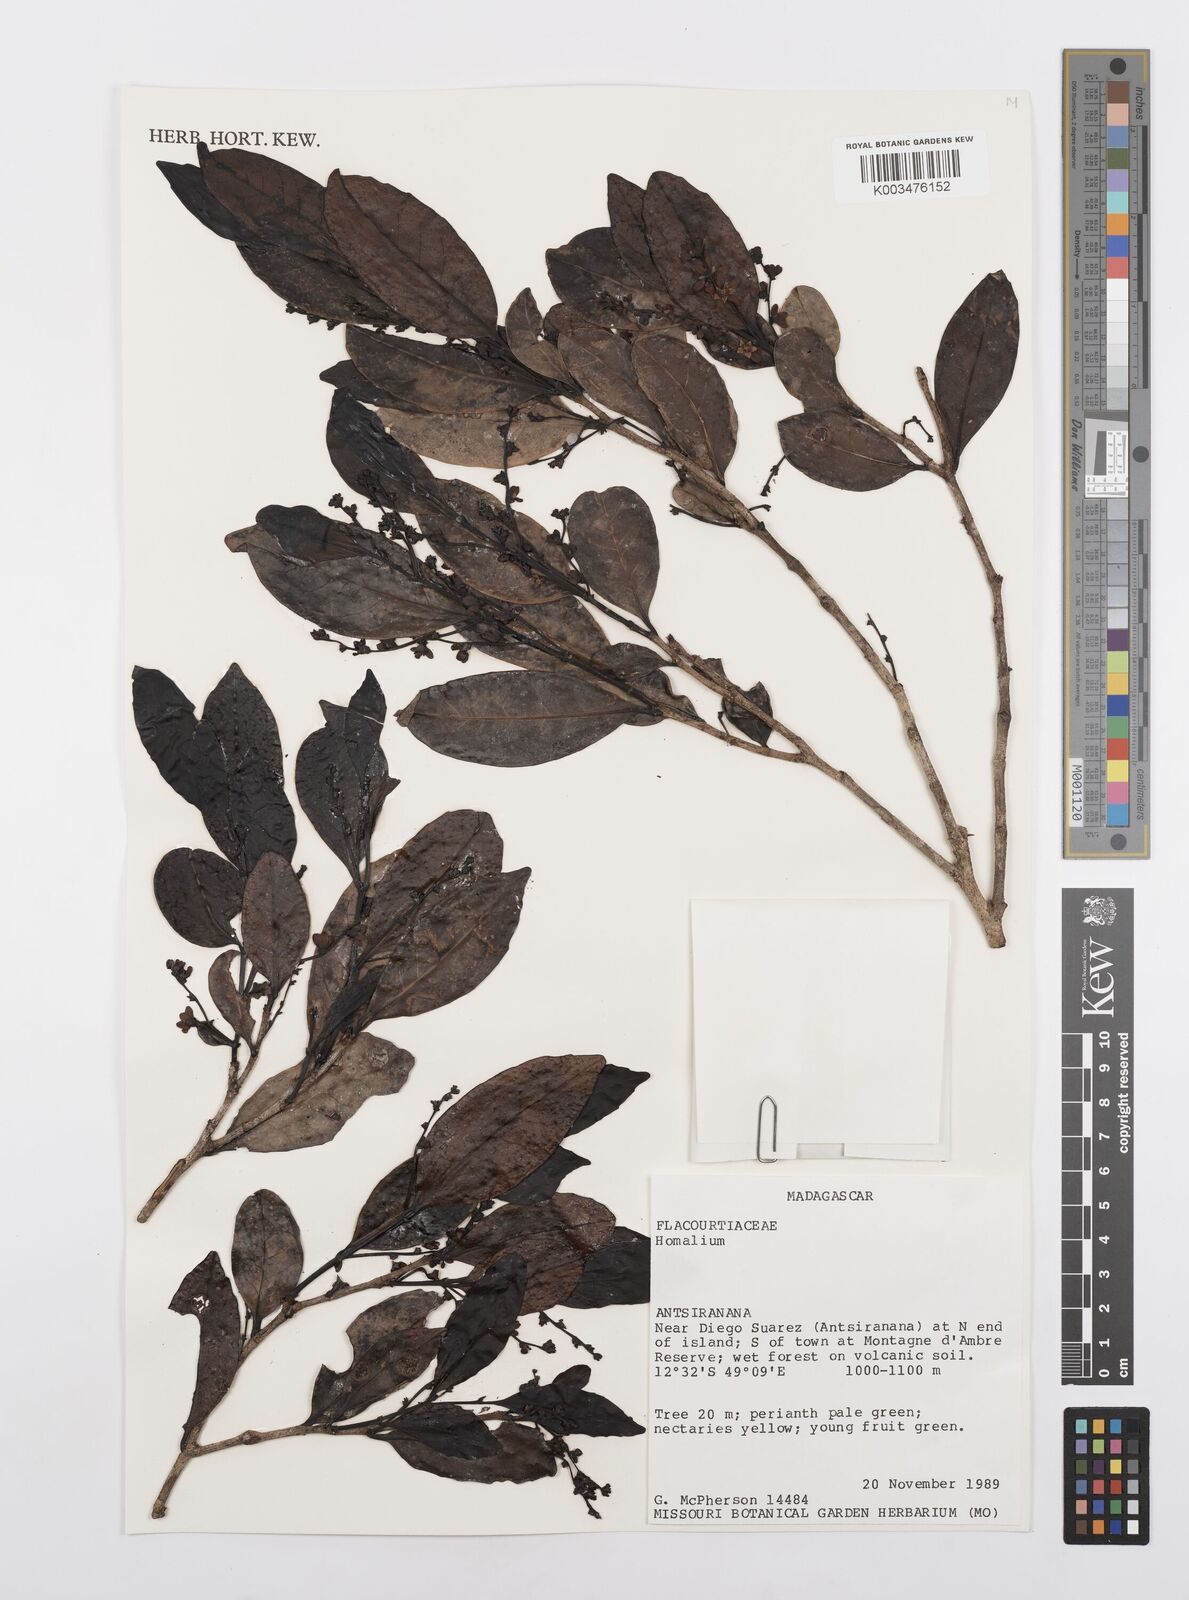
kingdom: Plantae
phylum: Tracheophyta
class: Magnoliopsida
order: Malpighiales
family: Salicaceae
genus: Homalium
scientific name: Homalium
